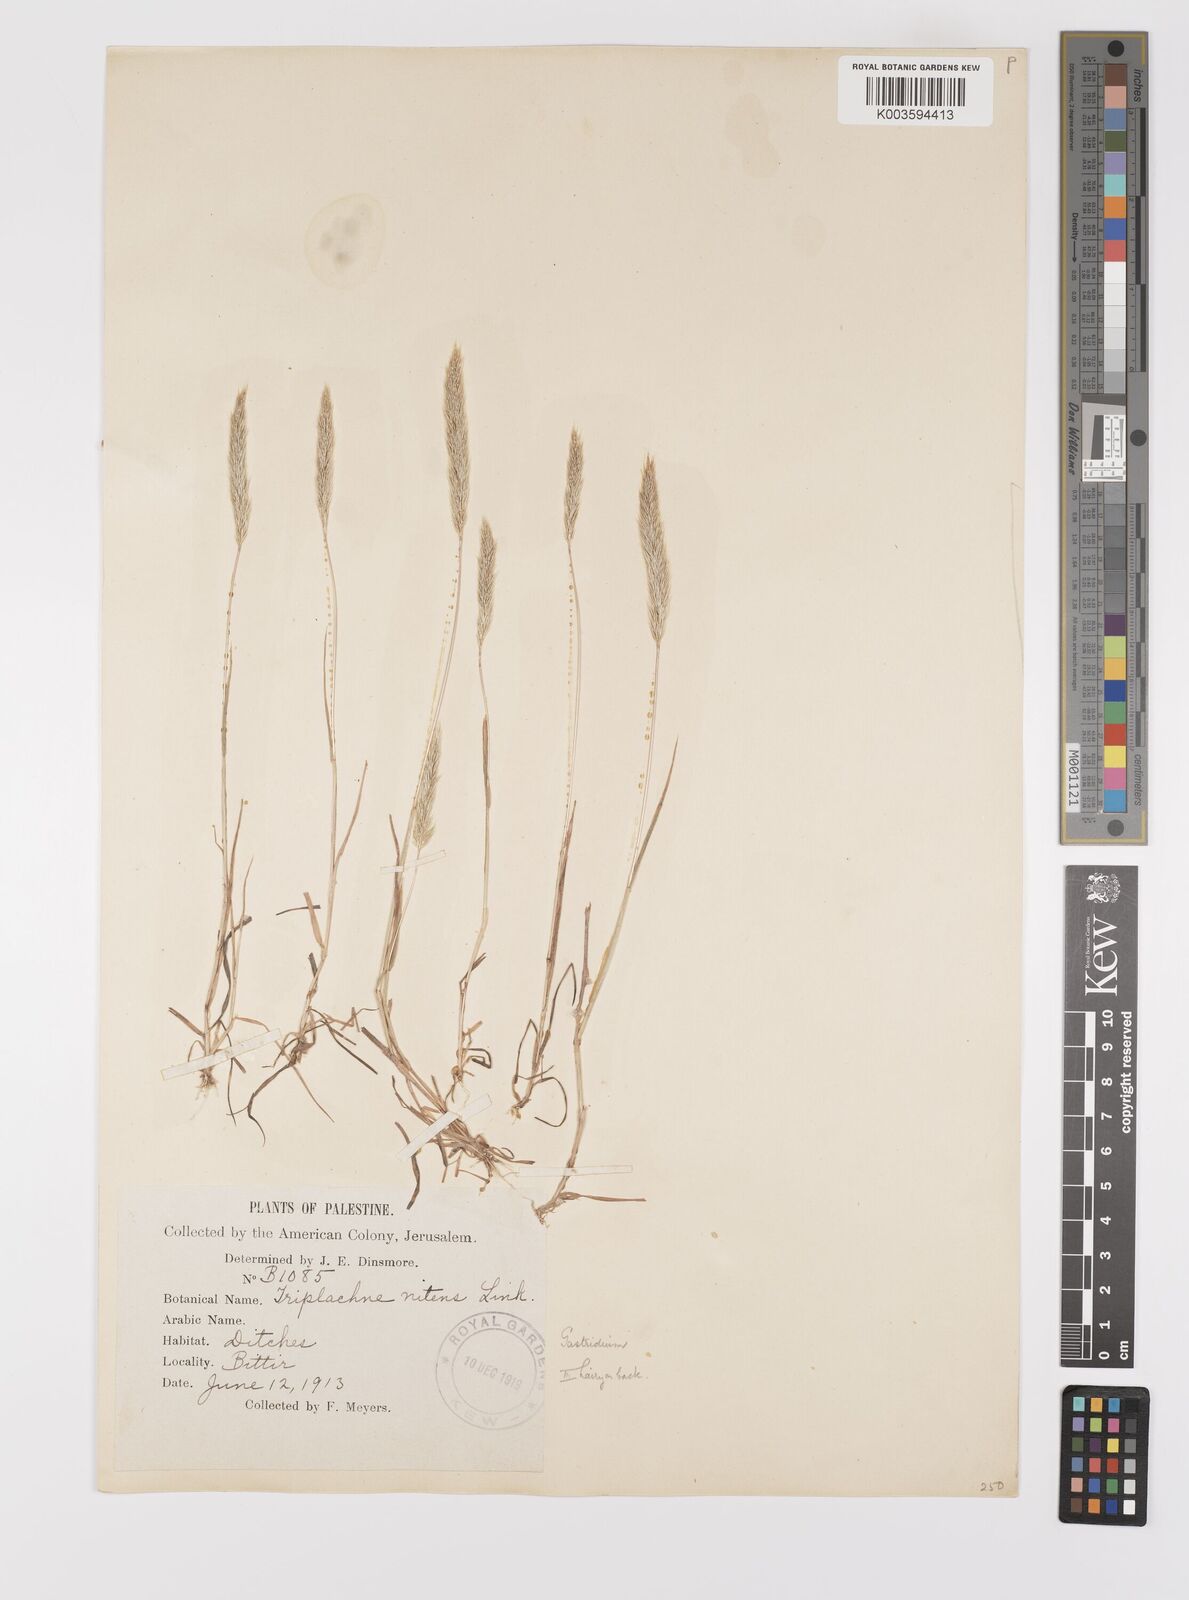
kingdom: Plantae
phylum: Tracheophyta
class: Liliopsida
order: Poales
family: Poaceae
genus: Gastridium
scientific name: Gastridium
